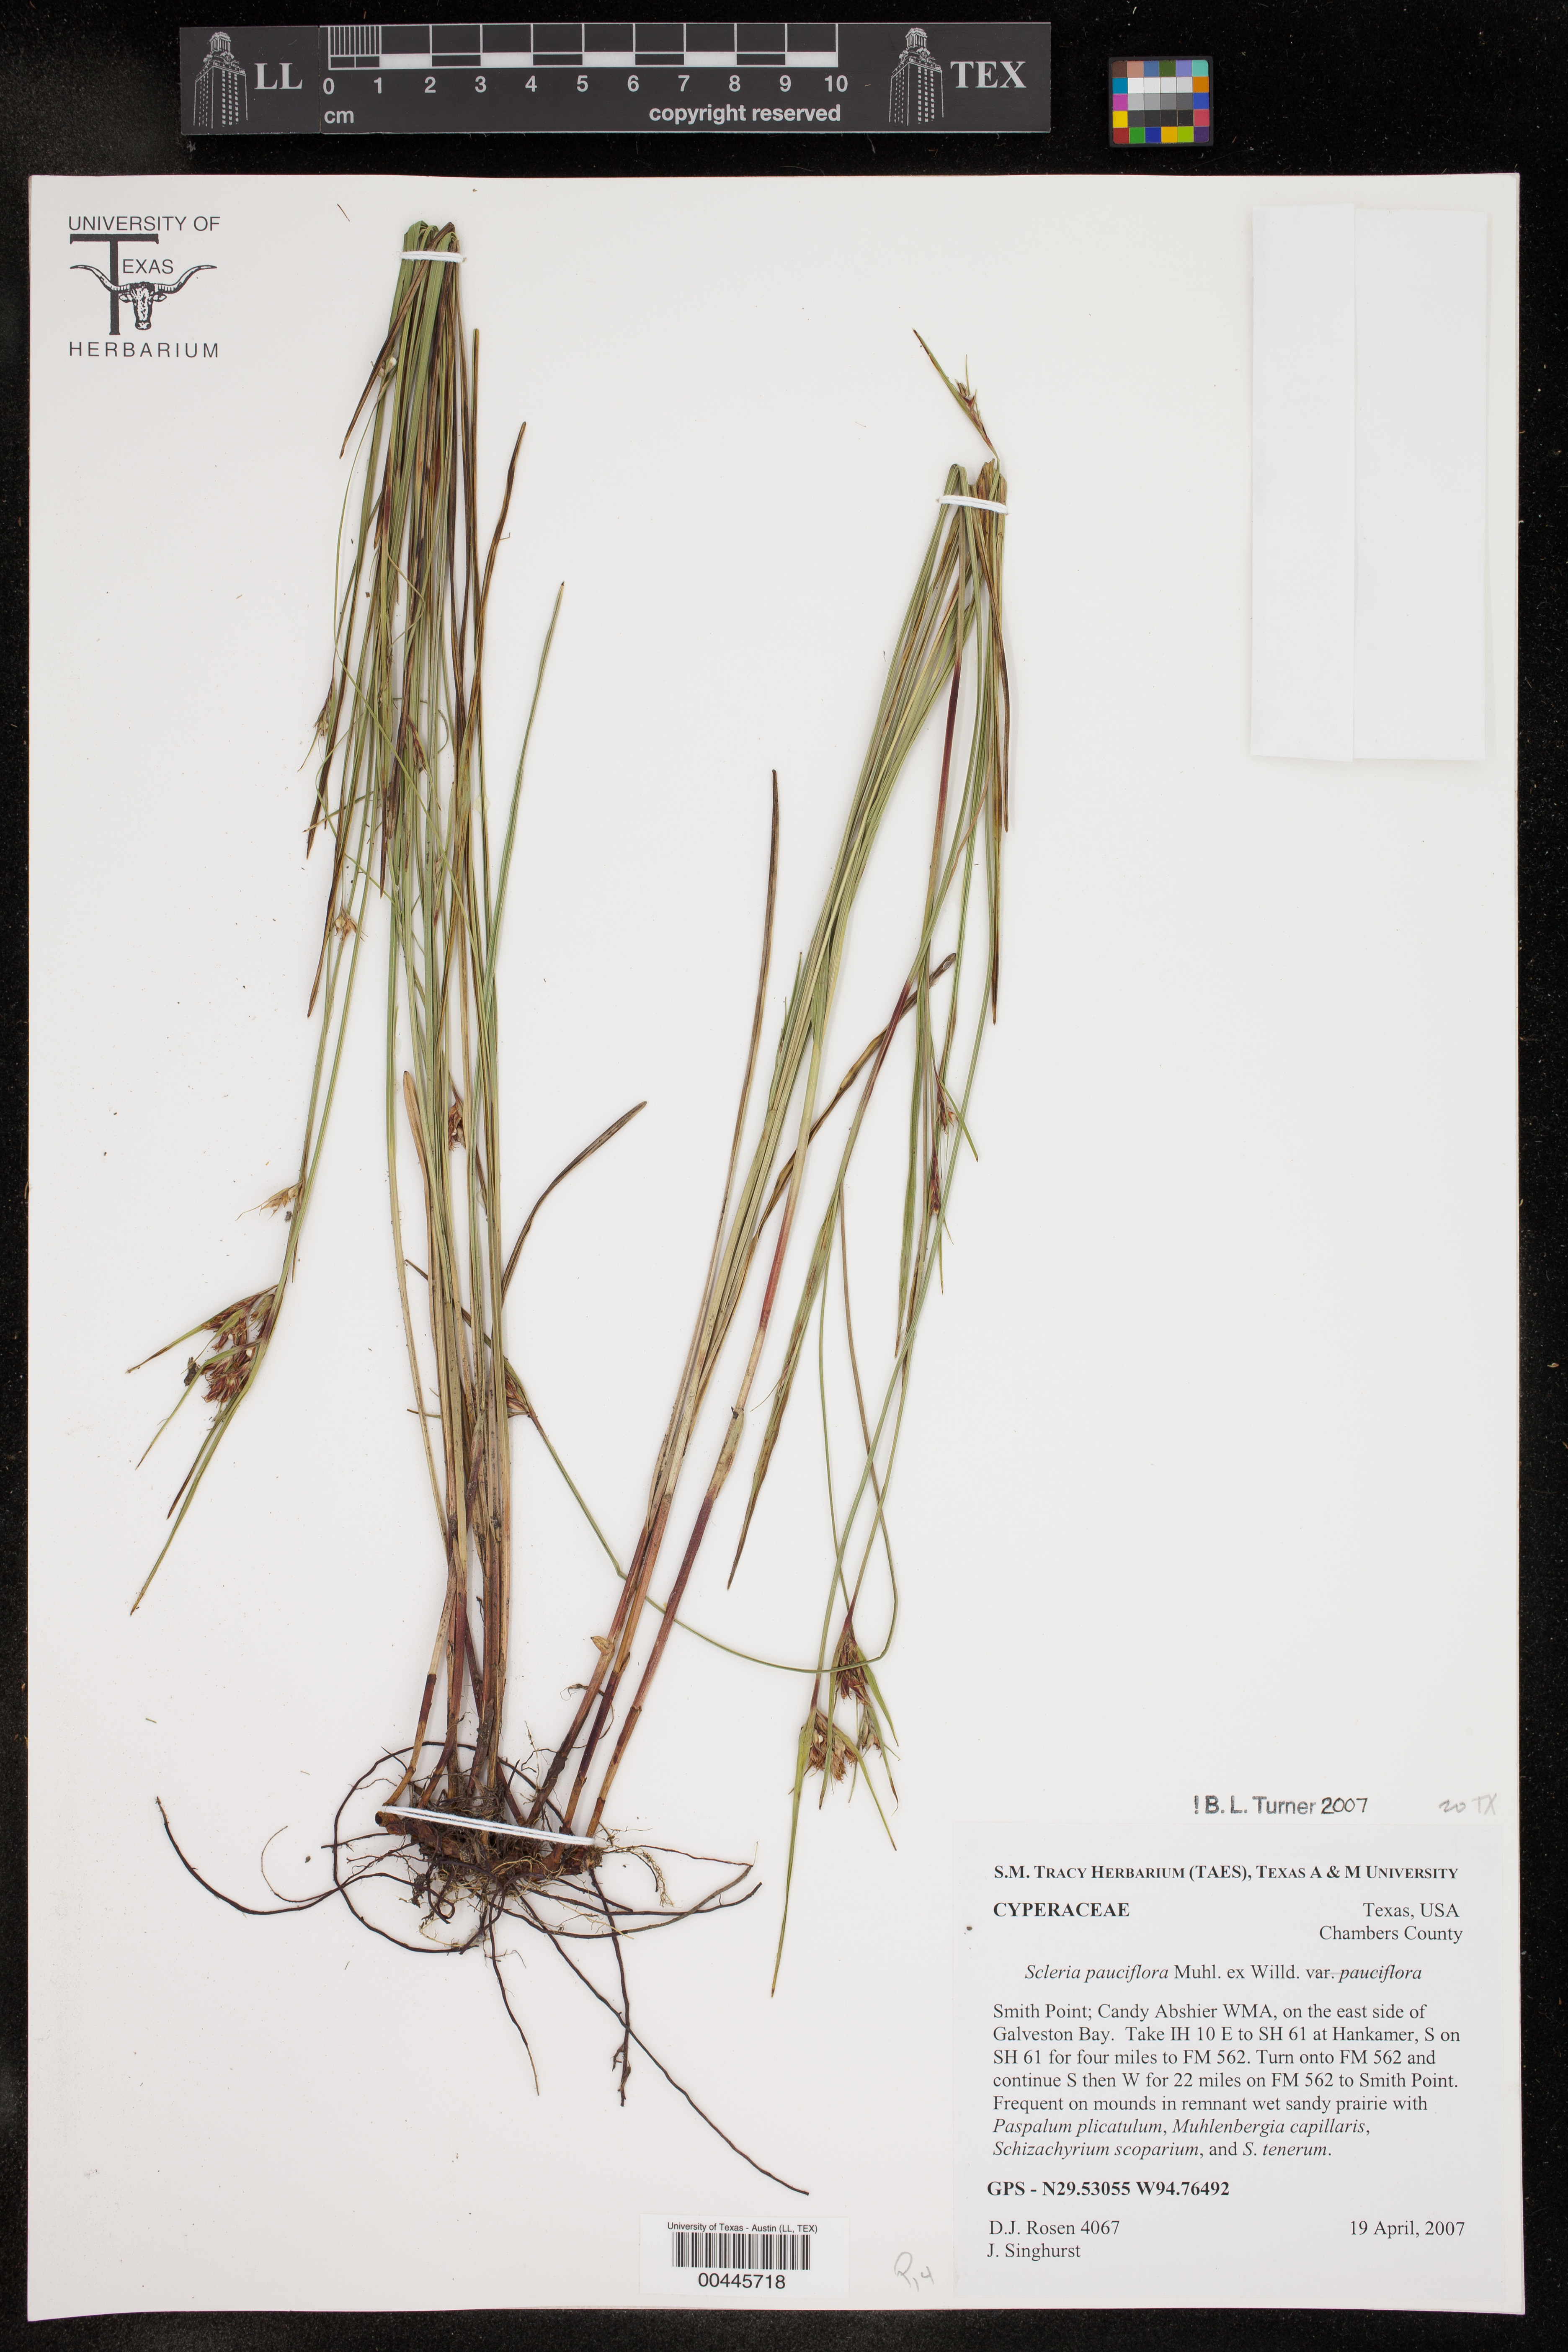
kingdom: Plantae
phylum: Tracheophyta
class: Liliopsida
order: Poales
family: Cyperaceae
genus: Scleria
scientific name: Scleria pauciflora
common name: Few-flowered nutrush
